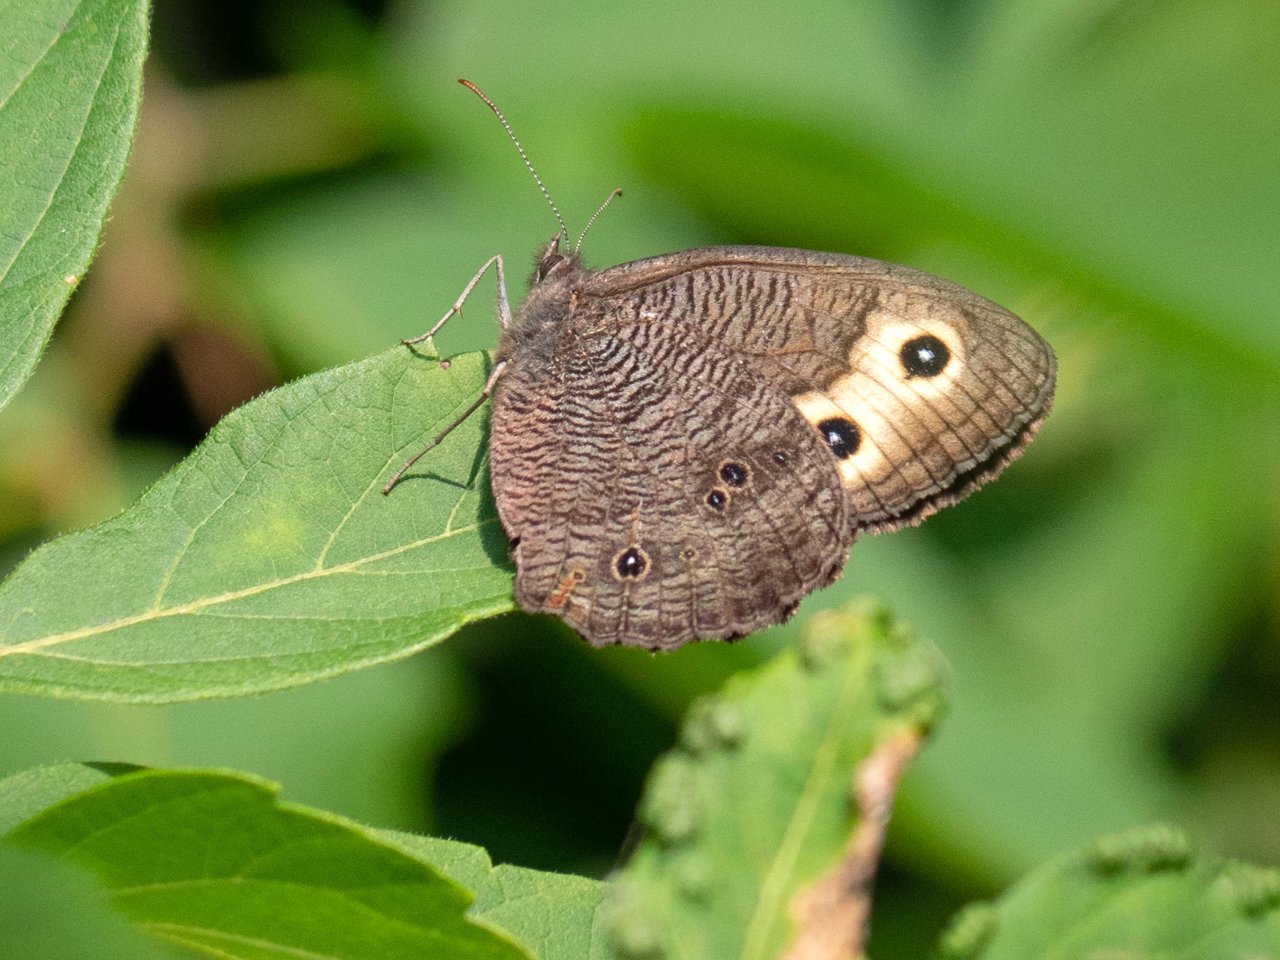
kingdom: Animalia
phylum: Arthropoda
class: Insecta
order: Lepidoptera
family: Nymphalidae
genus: Cercyonis
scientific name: Cercyonis pegala
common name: Common Wood-Nymph
